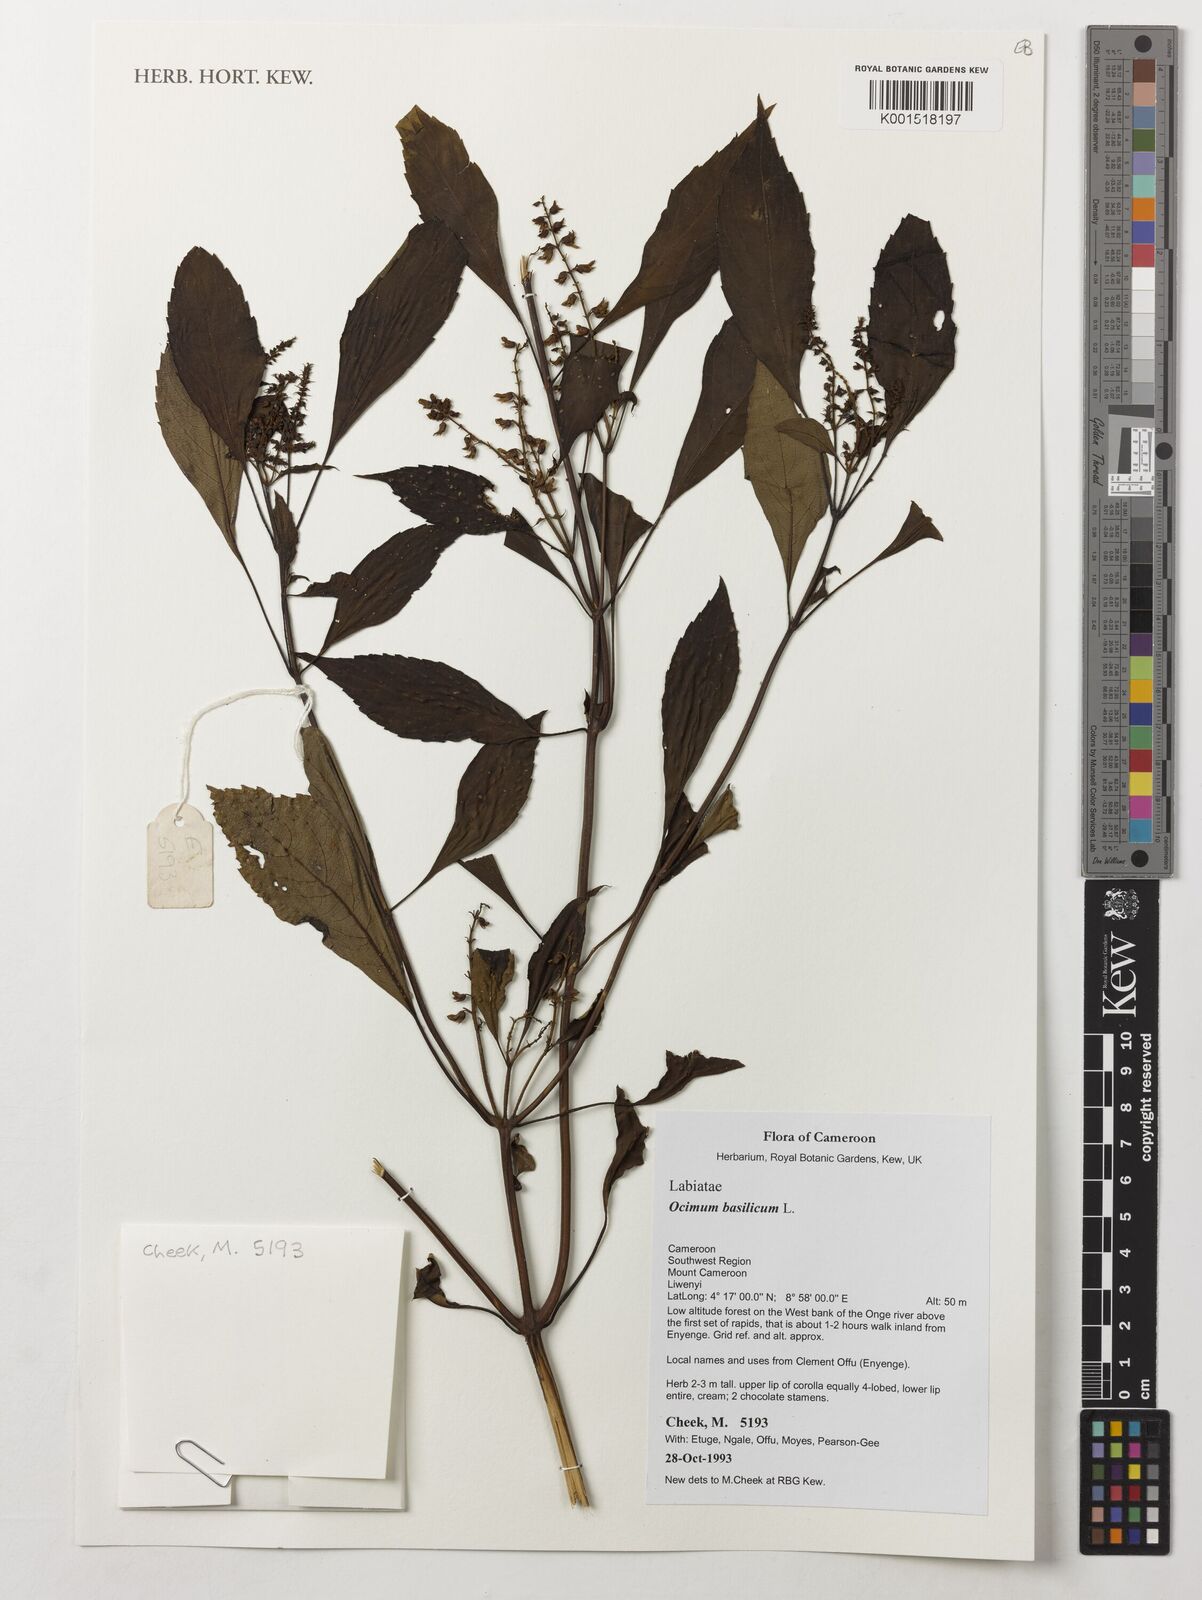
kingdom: Plantae
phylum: Tracheophyta
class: Magnoliopsida
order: Lamiales
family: Lamiaceae
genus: Ocimum
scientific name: Ocimum basilicum
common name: Sweet basil
